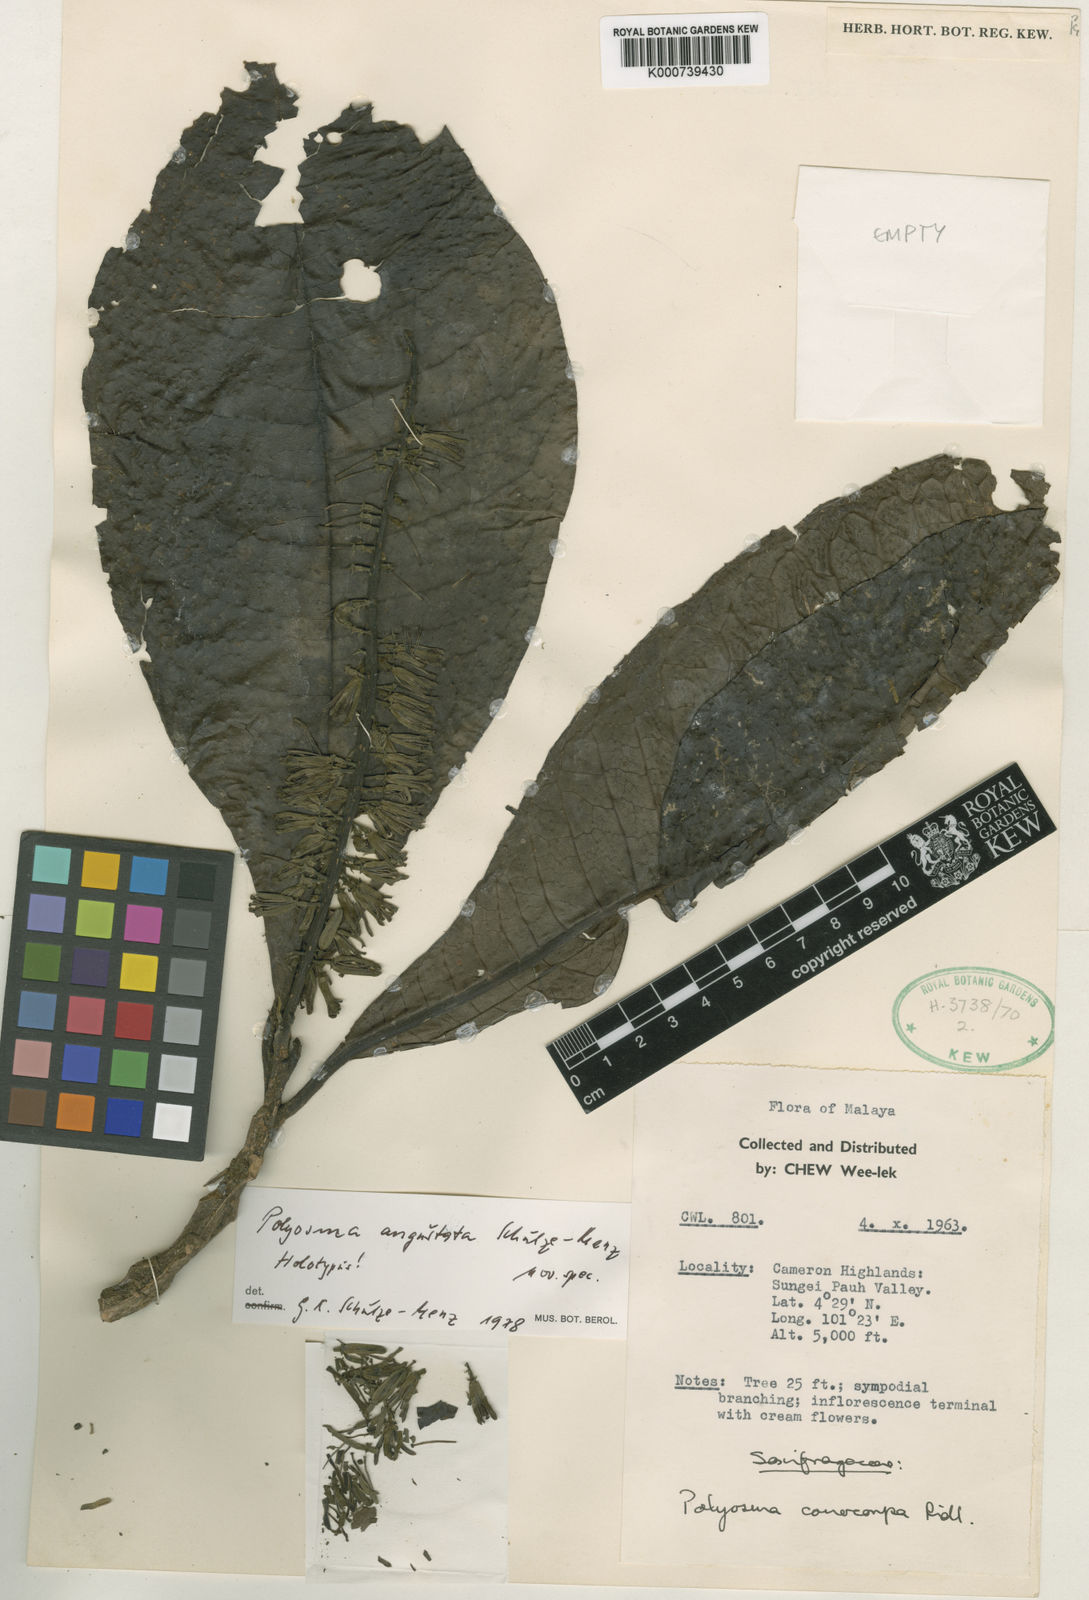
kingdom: Plantae
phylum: Tracheophyta
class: Magnoliopsida
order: Escalloniales
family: Escalloniaceae
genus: Polyosma
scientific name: Polyosma grandis
